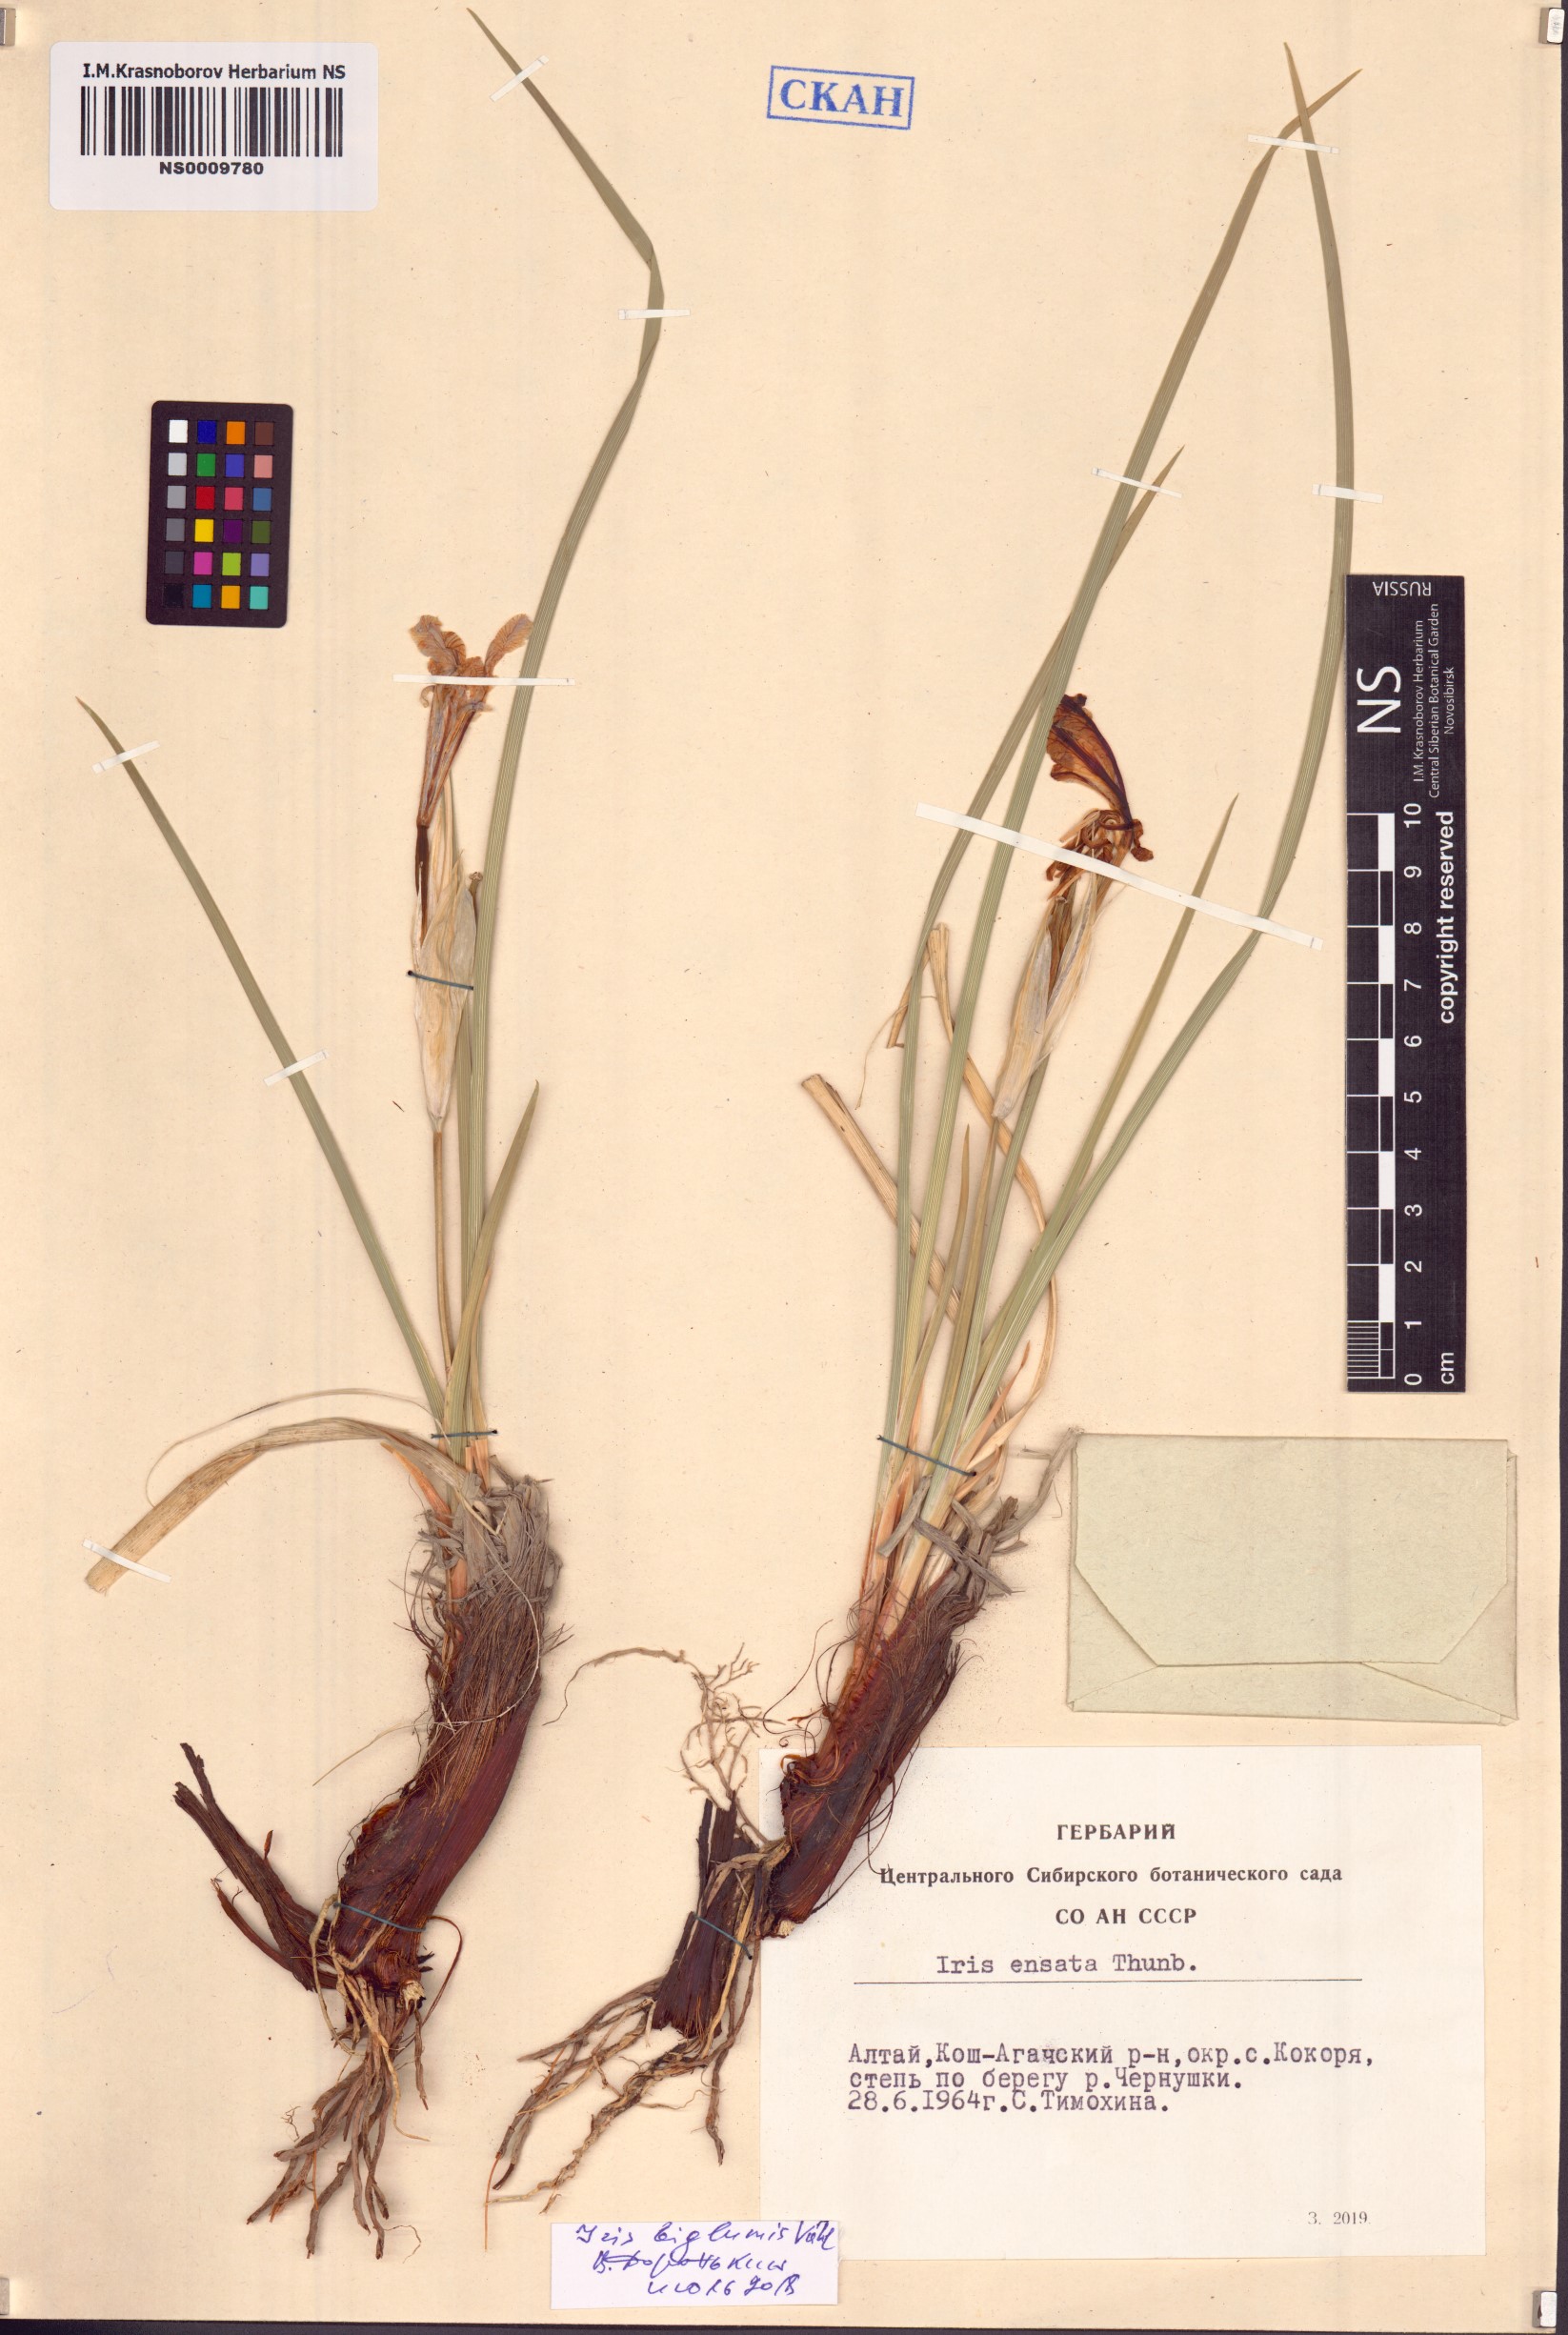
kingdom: Plantae
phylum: Tracheophyta
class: Liliopsida
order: Asparagales
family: Iridaceae
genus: Iris
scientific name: Iris lactea
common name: White-flower chinese iris
